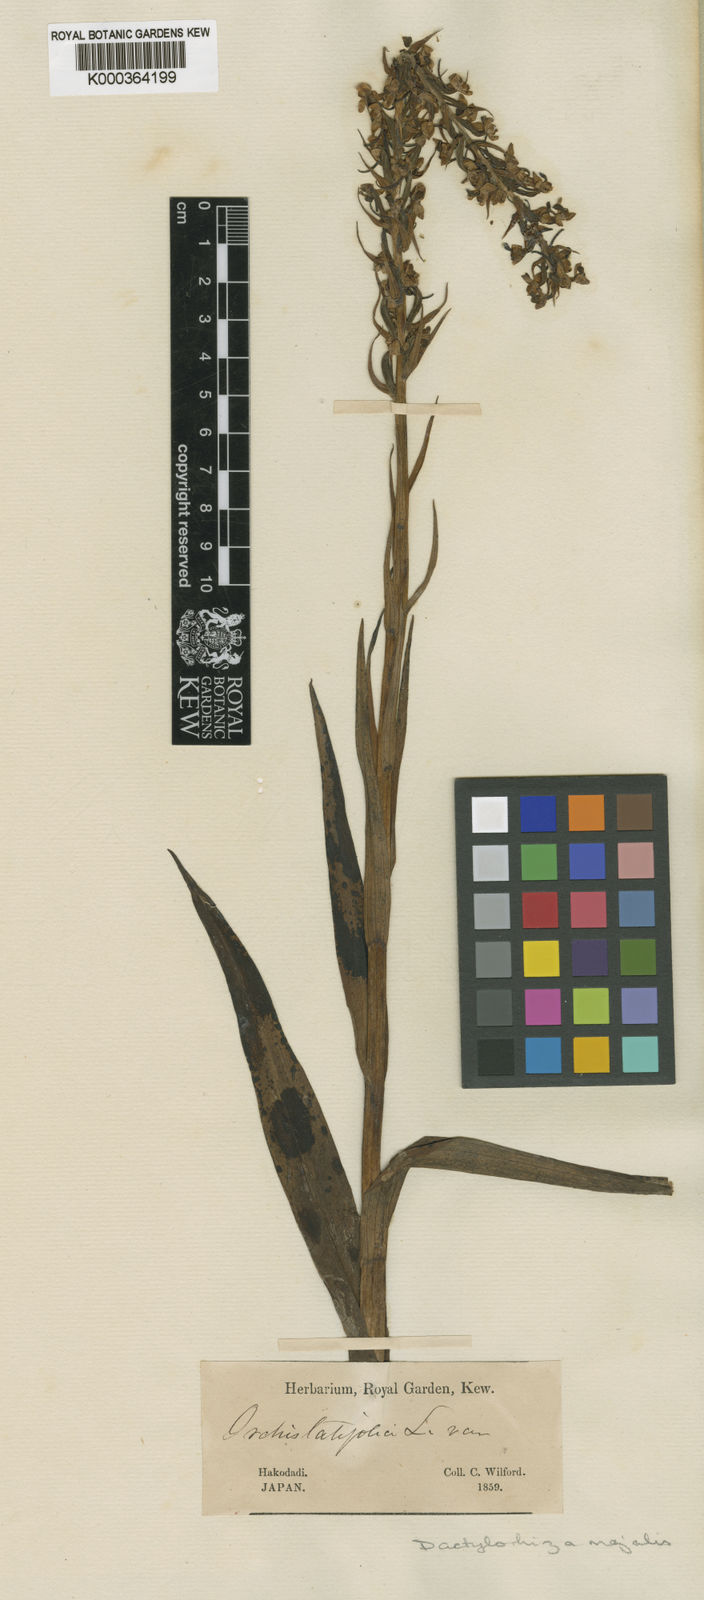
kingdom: Plantae
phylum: Tracheophyta
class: Liliopsida
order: Asparagales
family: Orchidaceae
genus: Dactylorhiza
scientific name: Dactylorhiza majalis
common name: Marsh orchid
